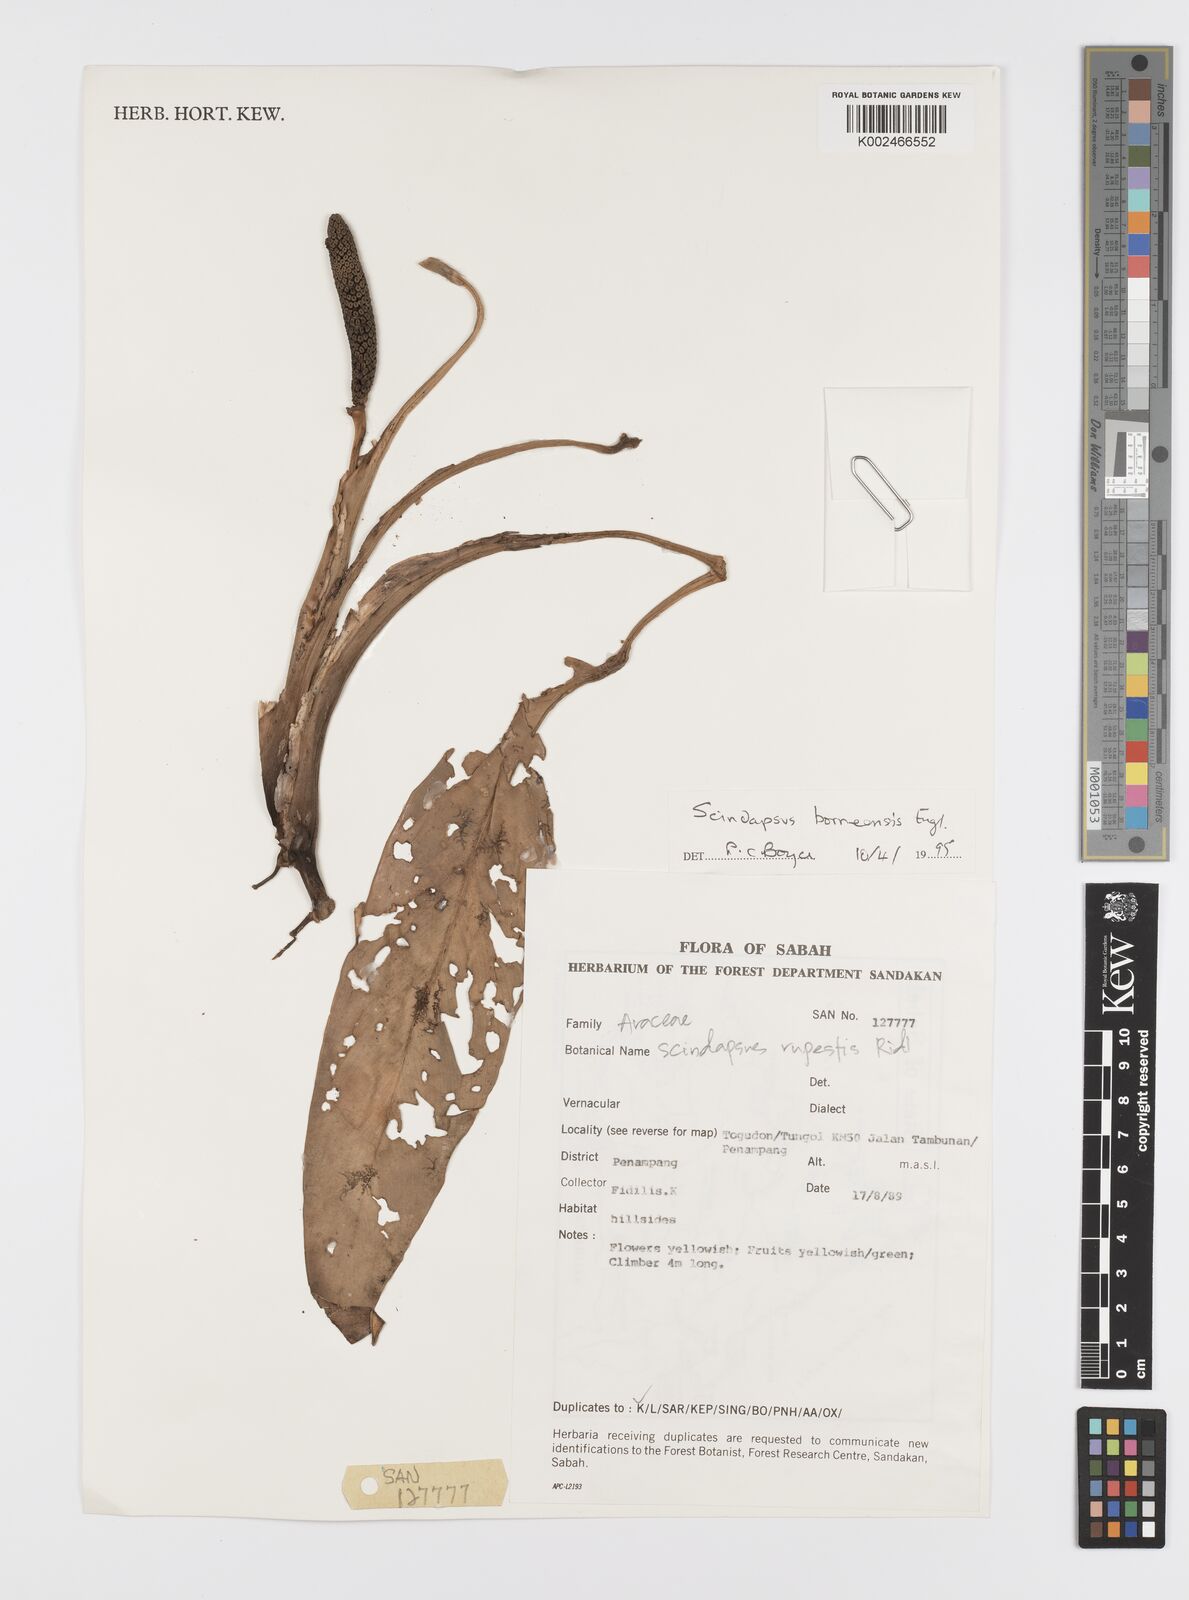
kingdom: Plantae
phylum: Tracheophyta
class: Liliopsida
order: Alismatales
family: Araceae
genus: Scindapsus
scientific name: Scindapsus coriaceus
